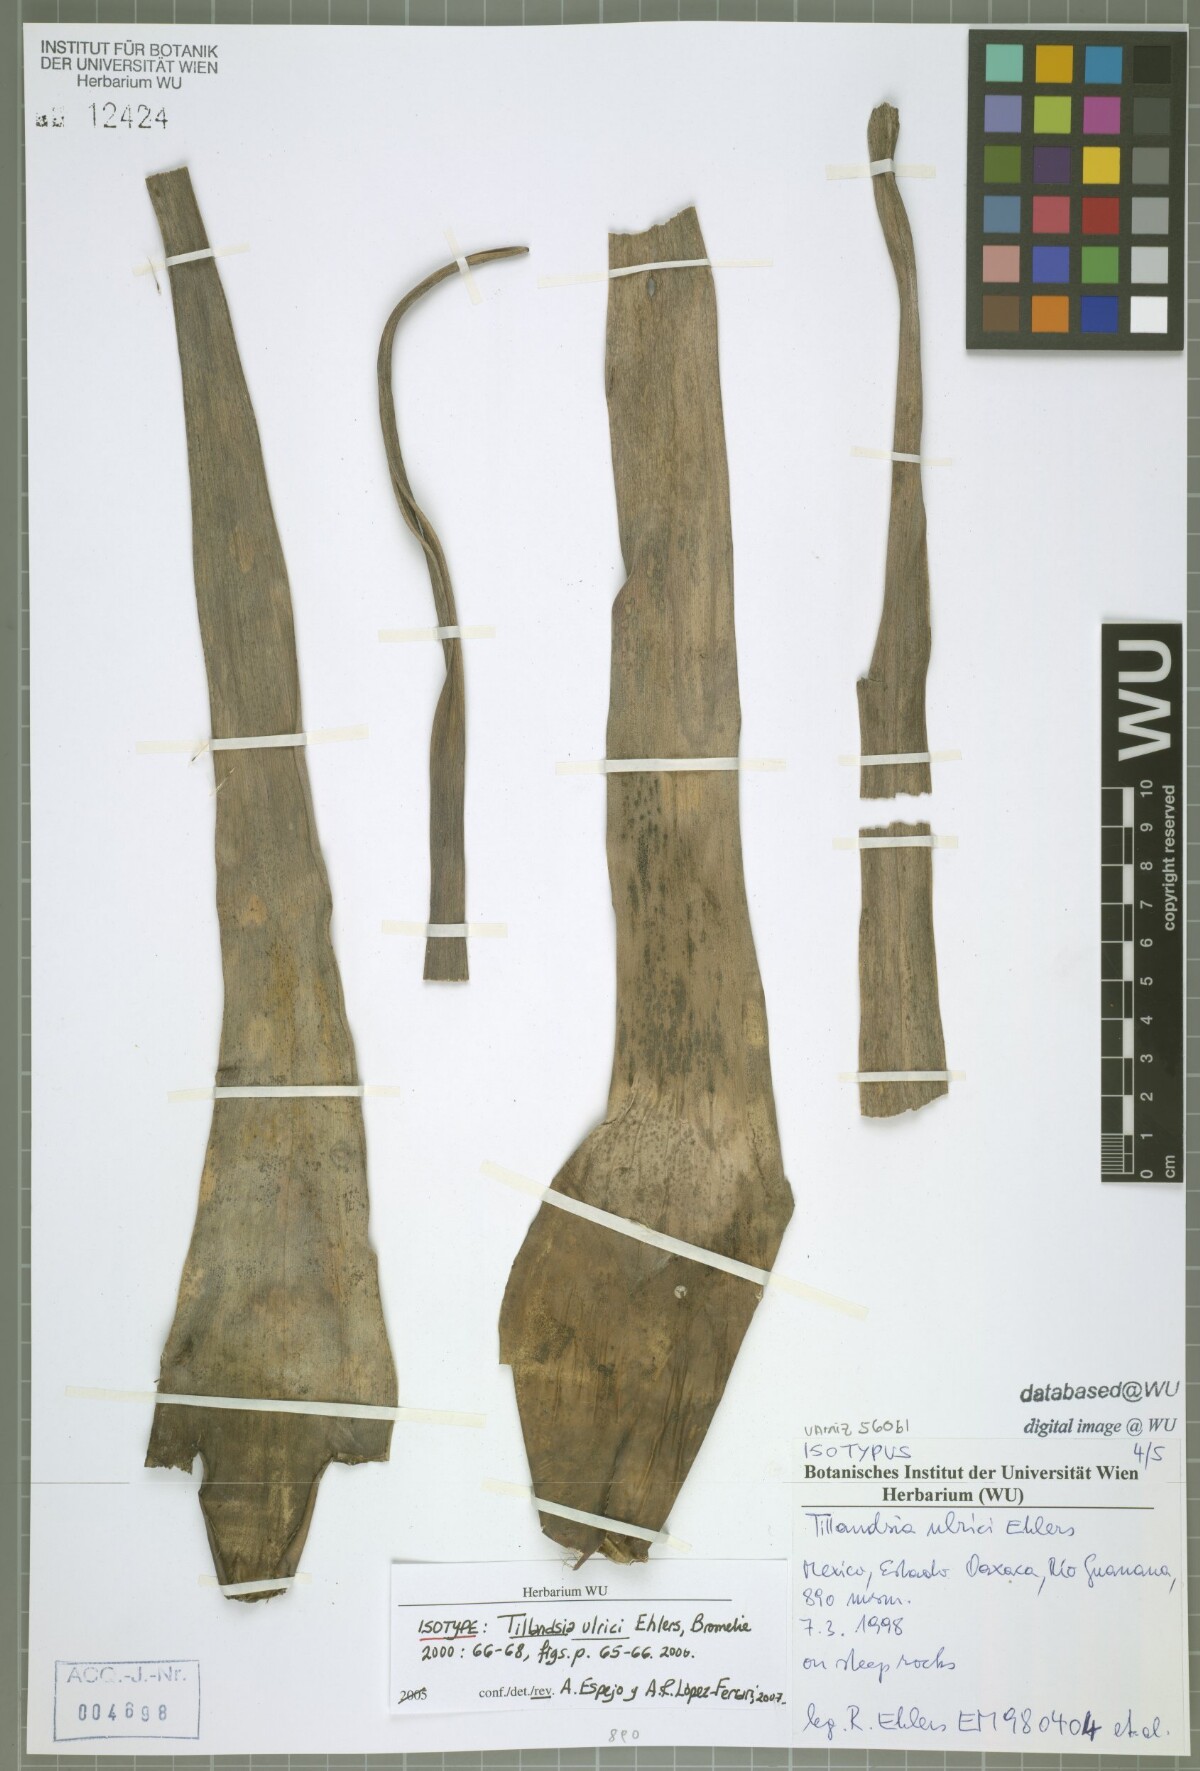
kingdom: Plantae
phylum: Tracheophyta
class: Liliopsida
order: Poales
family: Bromeliaceae
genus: Tillandsia
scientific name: Tillandsia ulrici
